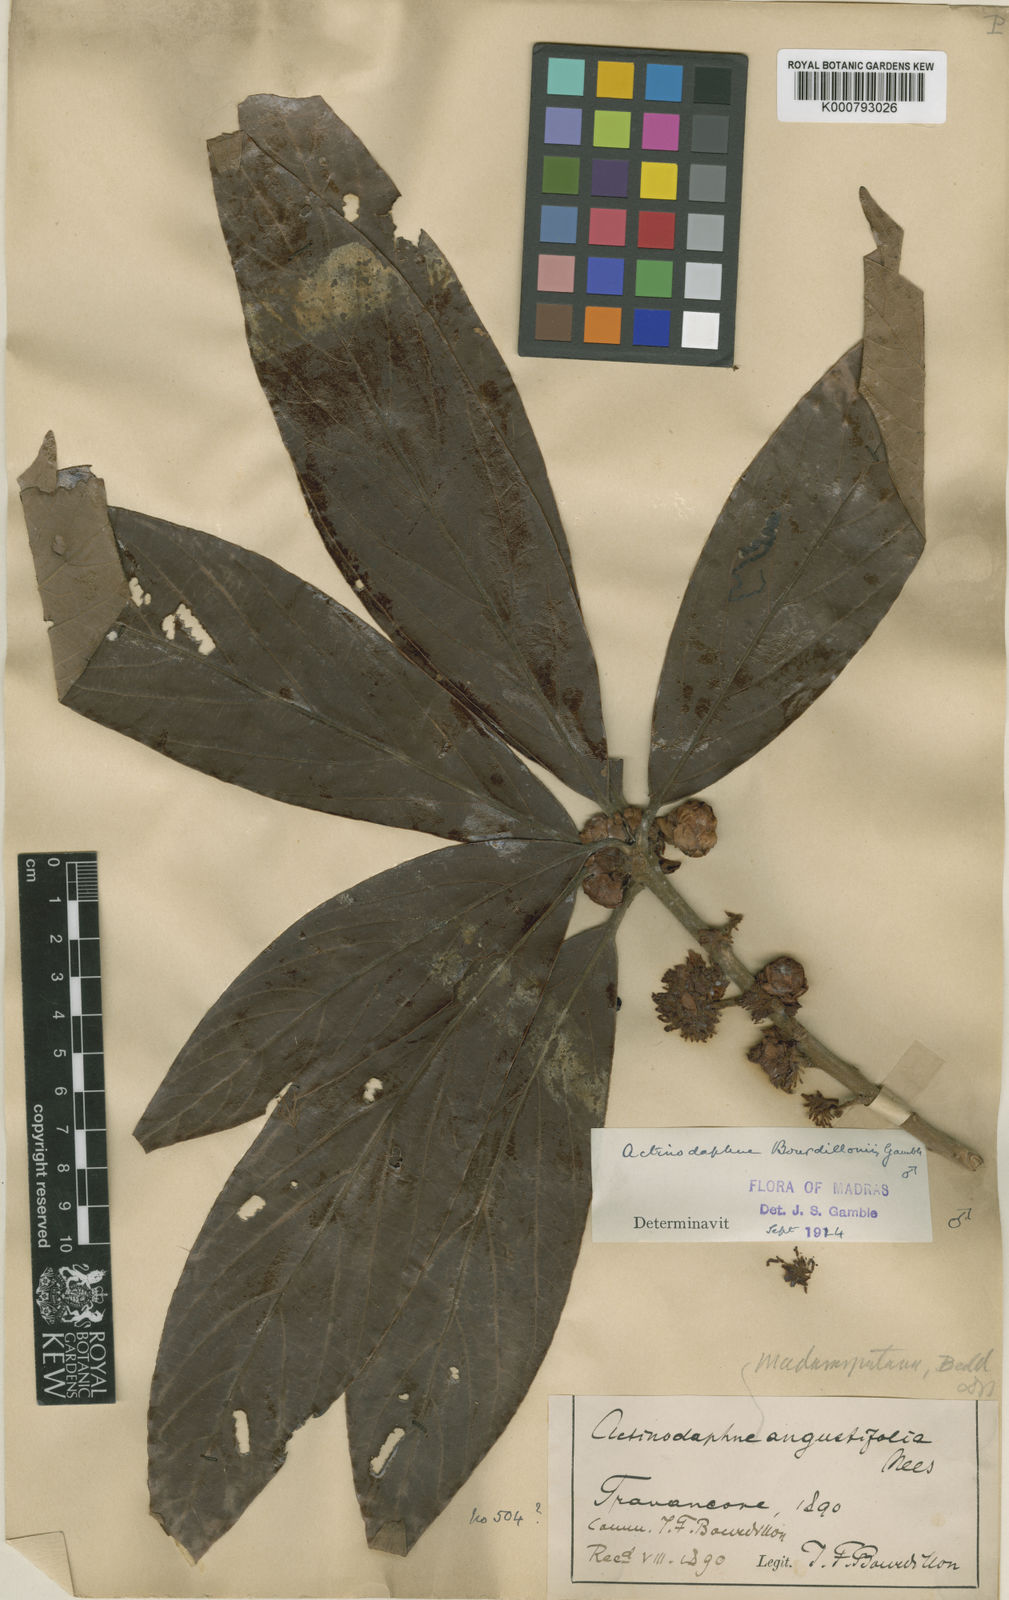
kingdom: Plantae
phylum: Tracheophyta
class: Magnoliopsida
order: Laurales
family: Lauraceae
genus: Actinodaphne
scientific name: Actinodaphne bourdillonii
